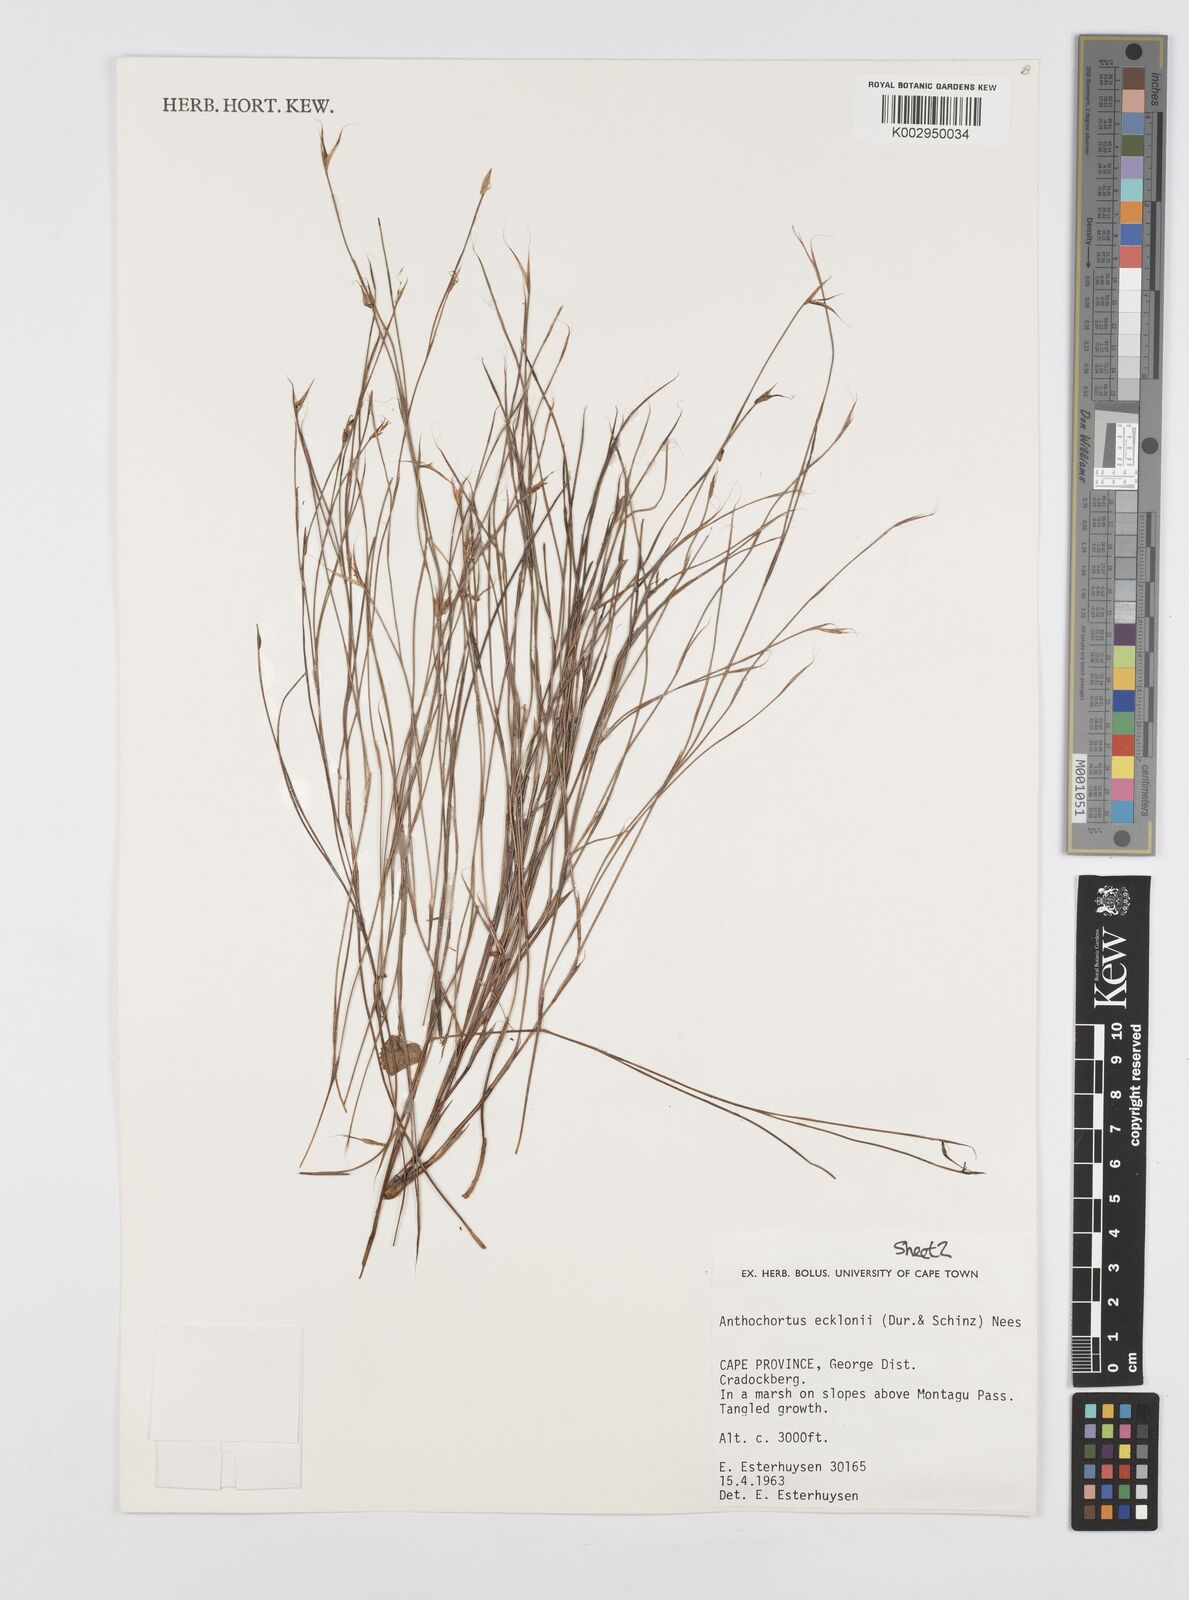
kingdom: Plantae
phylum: Tracheophyta
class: Liliopsida
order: Poales
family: Restionaceae
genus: Anthochortus
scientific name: Anthochortus ecklonii
